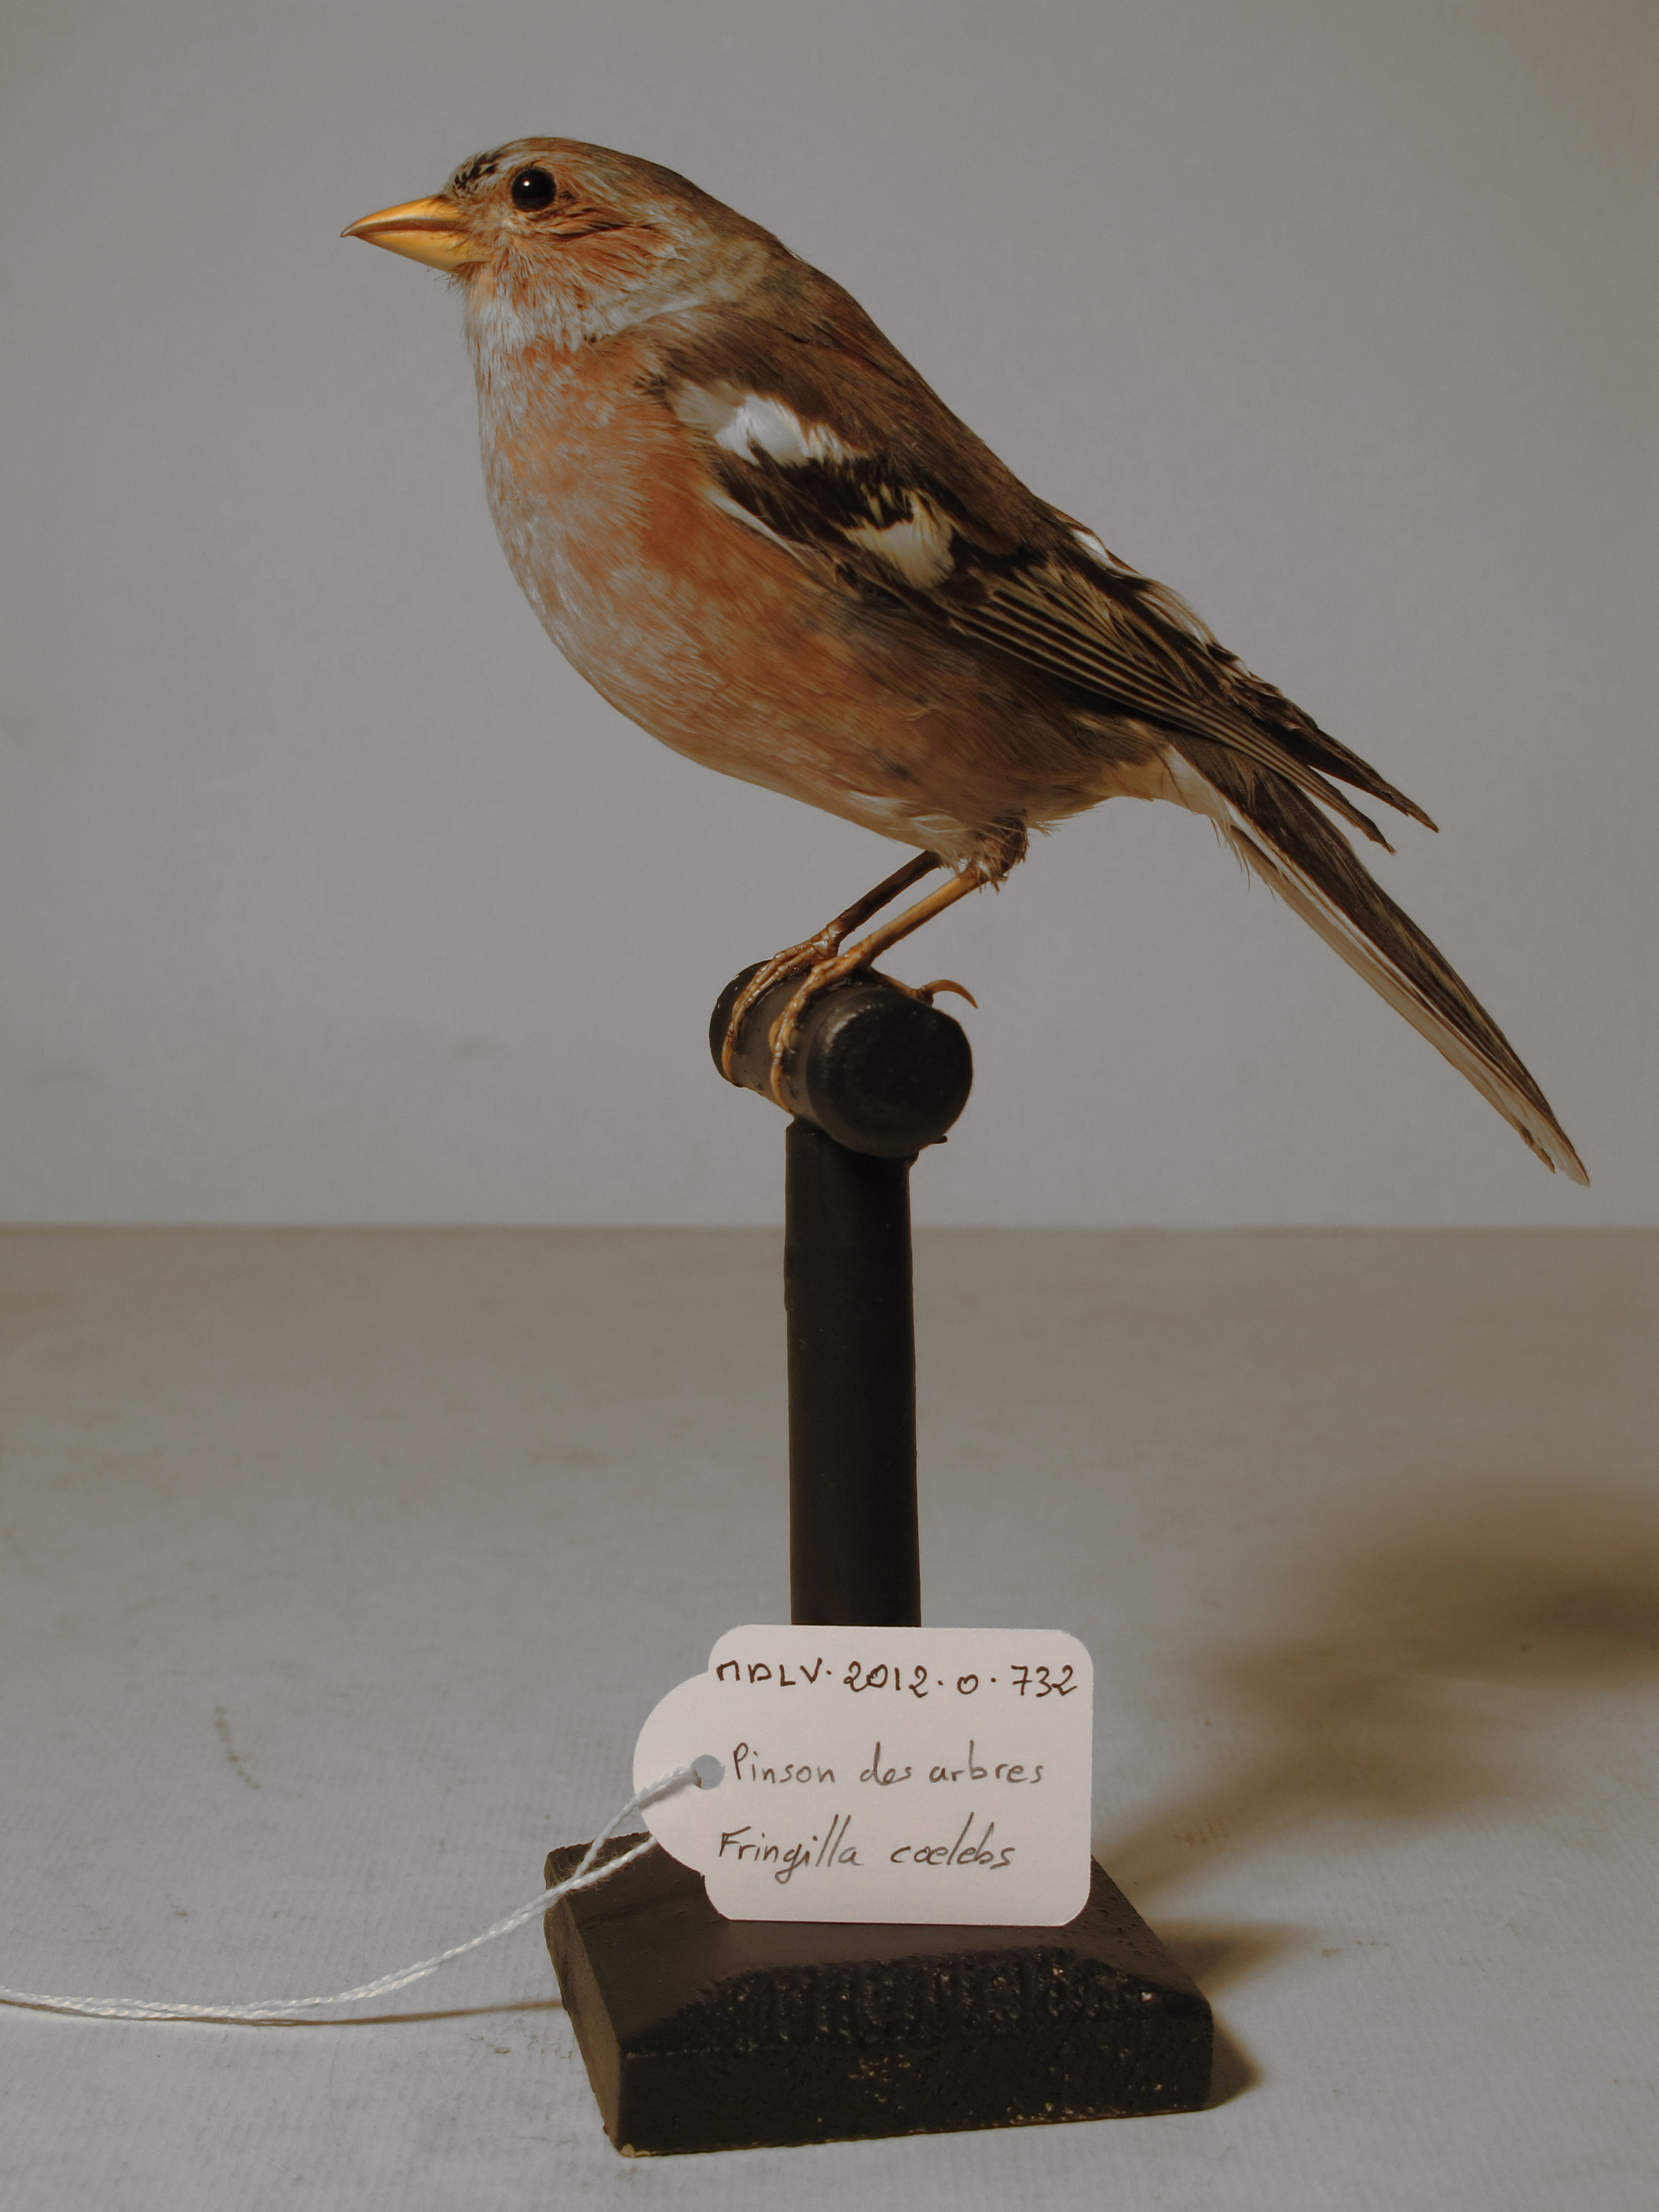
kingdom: Animalia
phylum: Chordata
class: Aves
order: Passeriformes
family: Fringillidae
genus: Fringilla
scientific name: Fringilla coelebs
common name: Common Chaffinch
